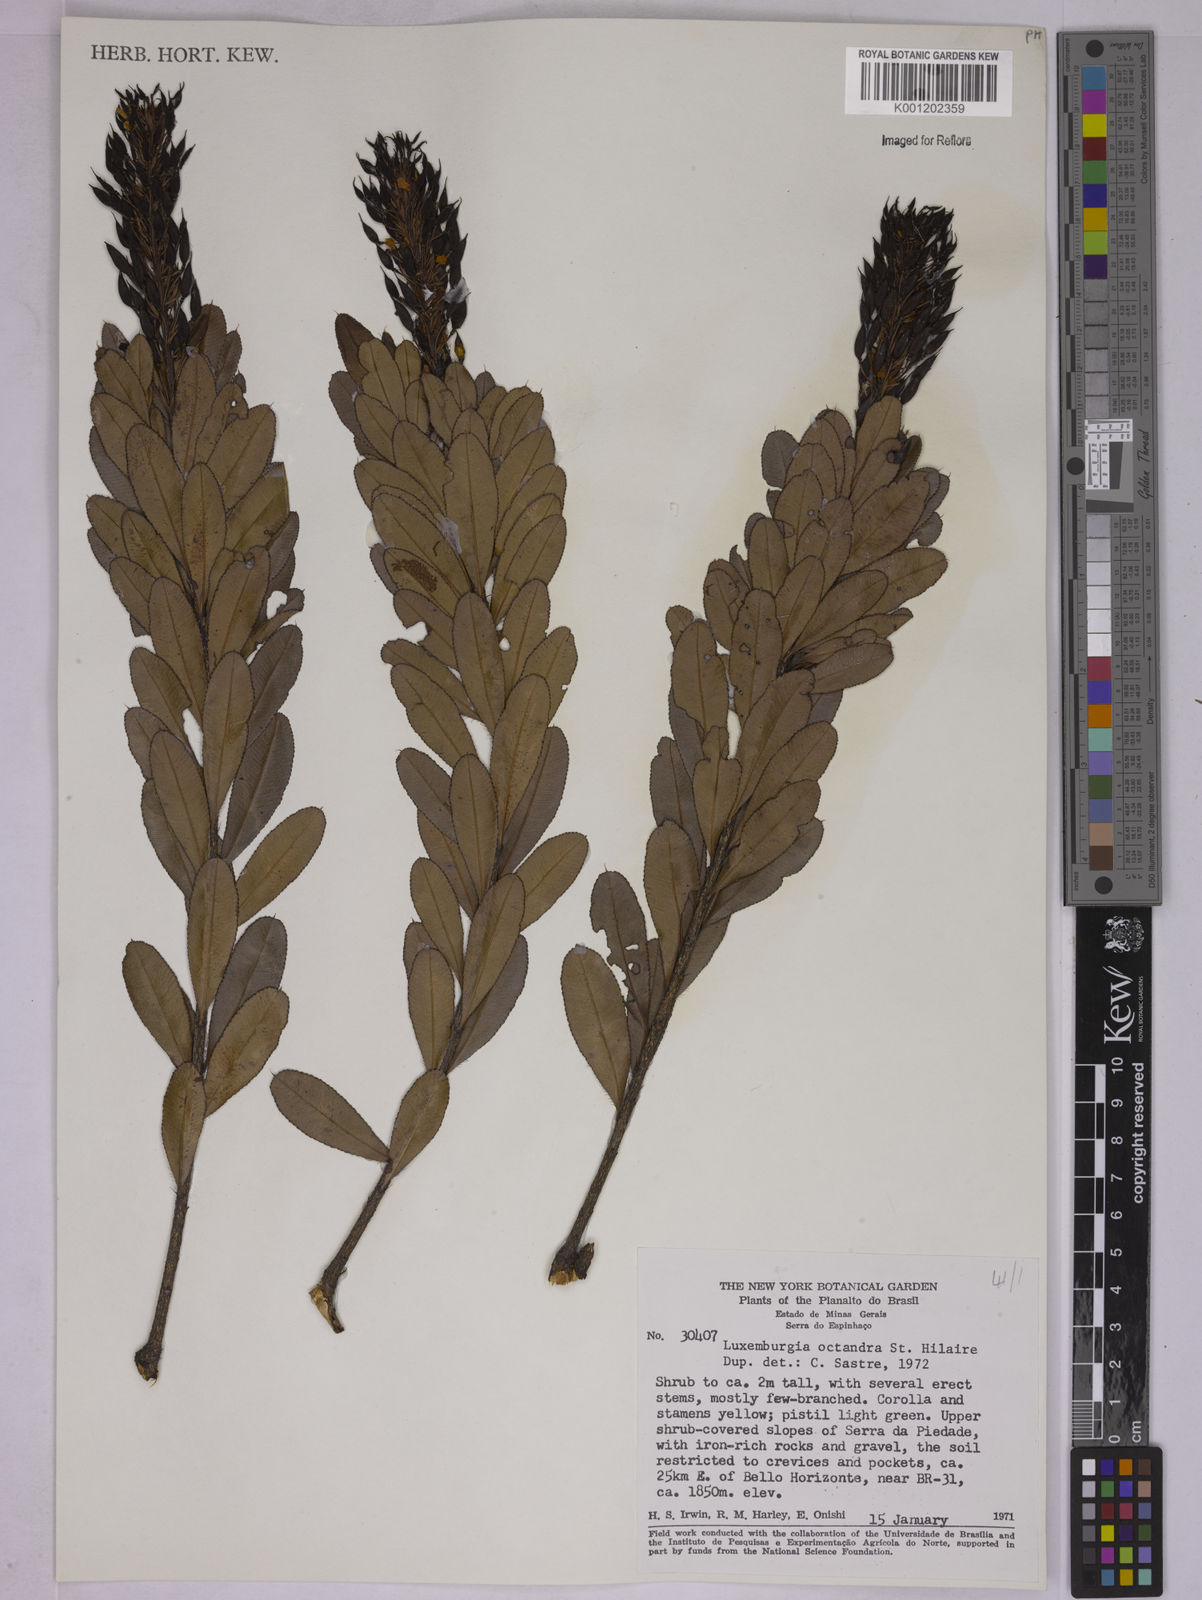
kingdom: Plantae
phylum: Tracheophyta
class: Magnoliopsida
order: Malpighiales
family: Ochnaceae
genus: Luxemburgia
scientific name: Luxemburgia octandra
